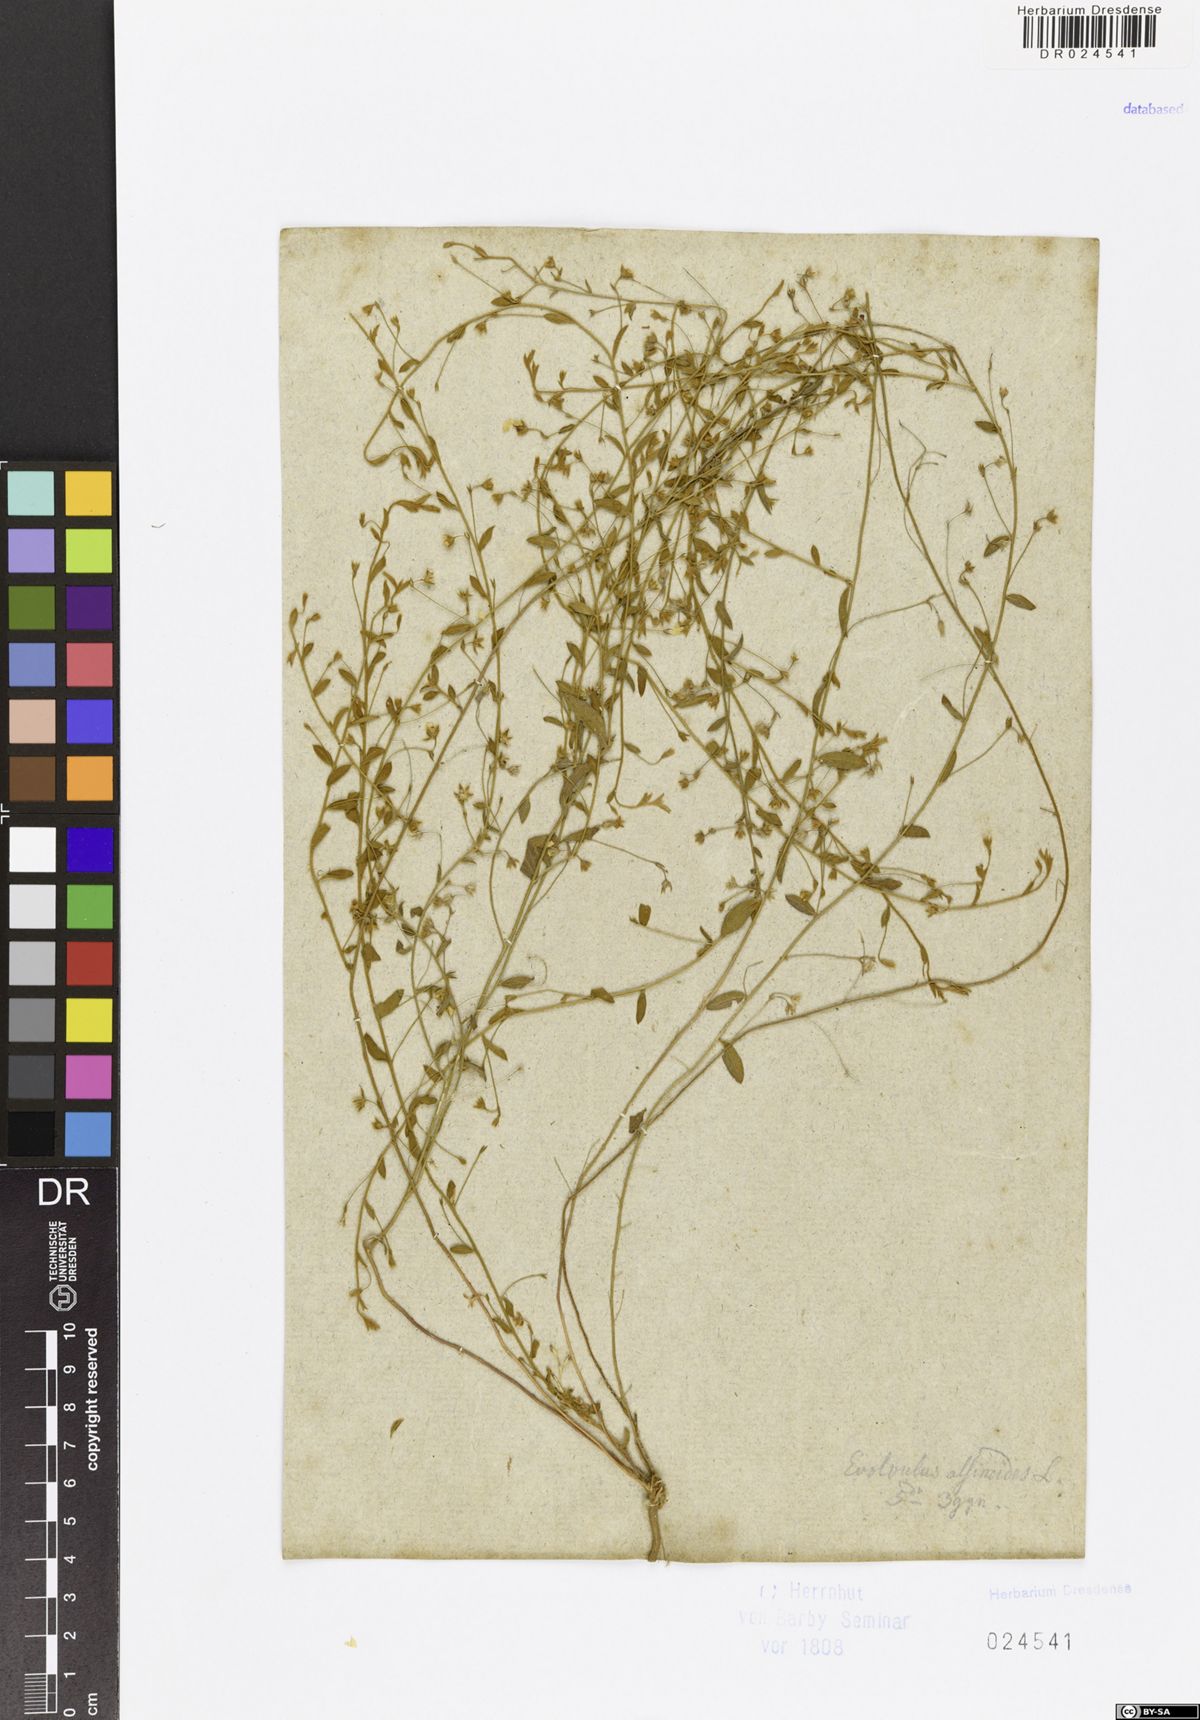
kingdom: Plantae
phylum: Tracheophyta
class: Magnoliopsida
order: Solanales
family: Convolvulaceae
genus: Evolvulus
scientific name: Evolvulus alsinoides
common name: Slender dwarf morning-glory
